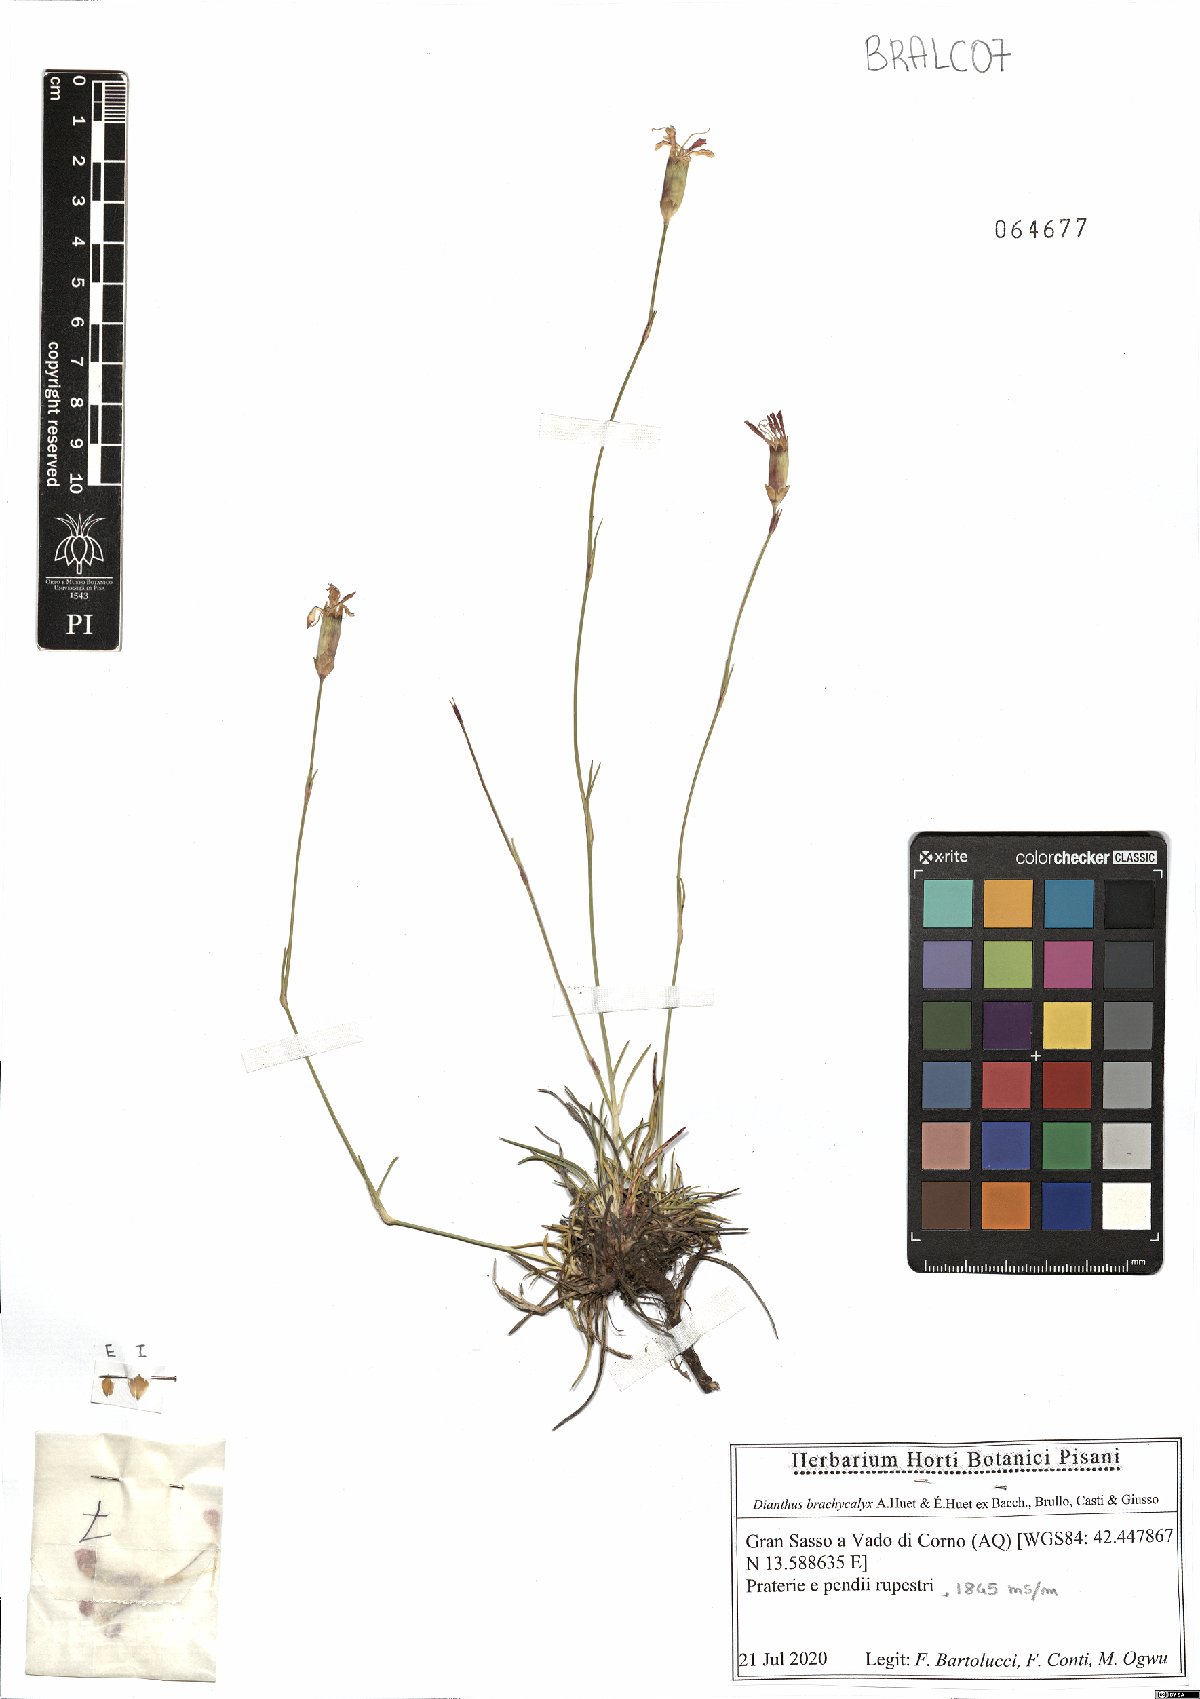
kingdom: Plantae
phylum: Tracheophyta
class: Magnoliopsida
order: Caryophyllales
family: Caryophyllaceae
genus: Dianthus
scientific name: Dianthus brachycalyx
